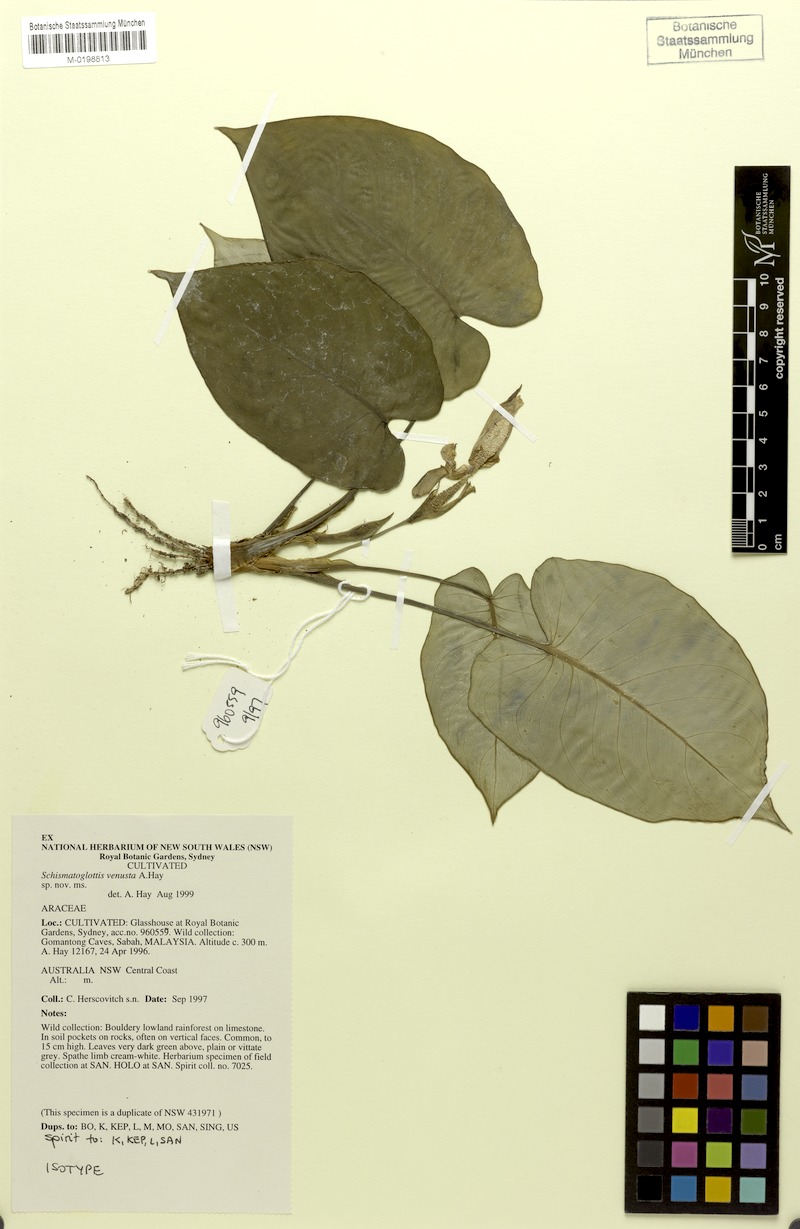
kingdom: Plantae
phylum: Tracheophyta
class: Liliopsida
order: Alismatales
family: Araceae
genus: Schismatoglottis
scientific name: Schismatoglottis venusta
